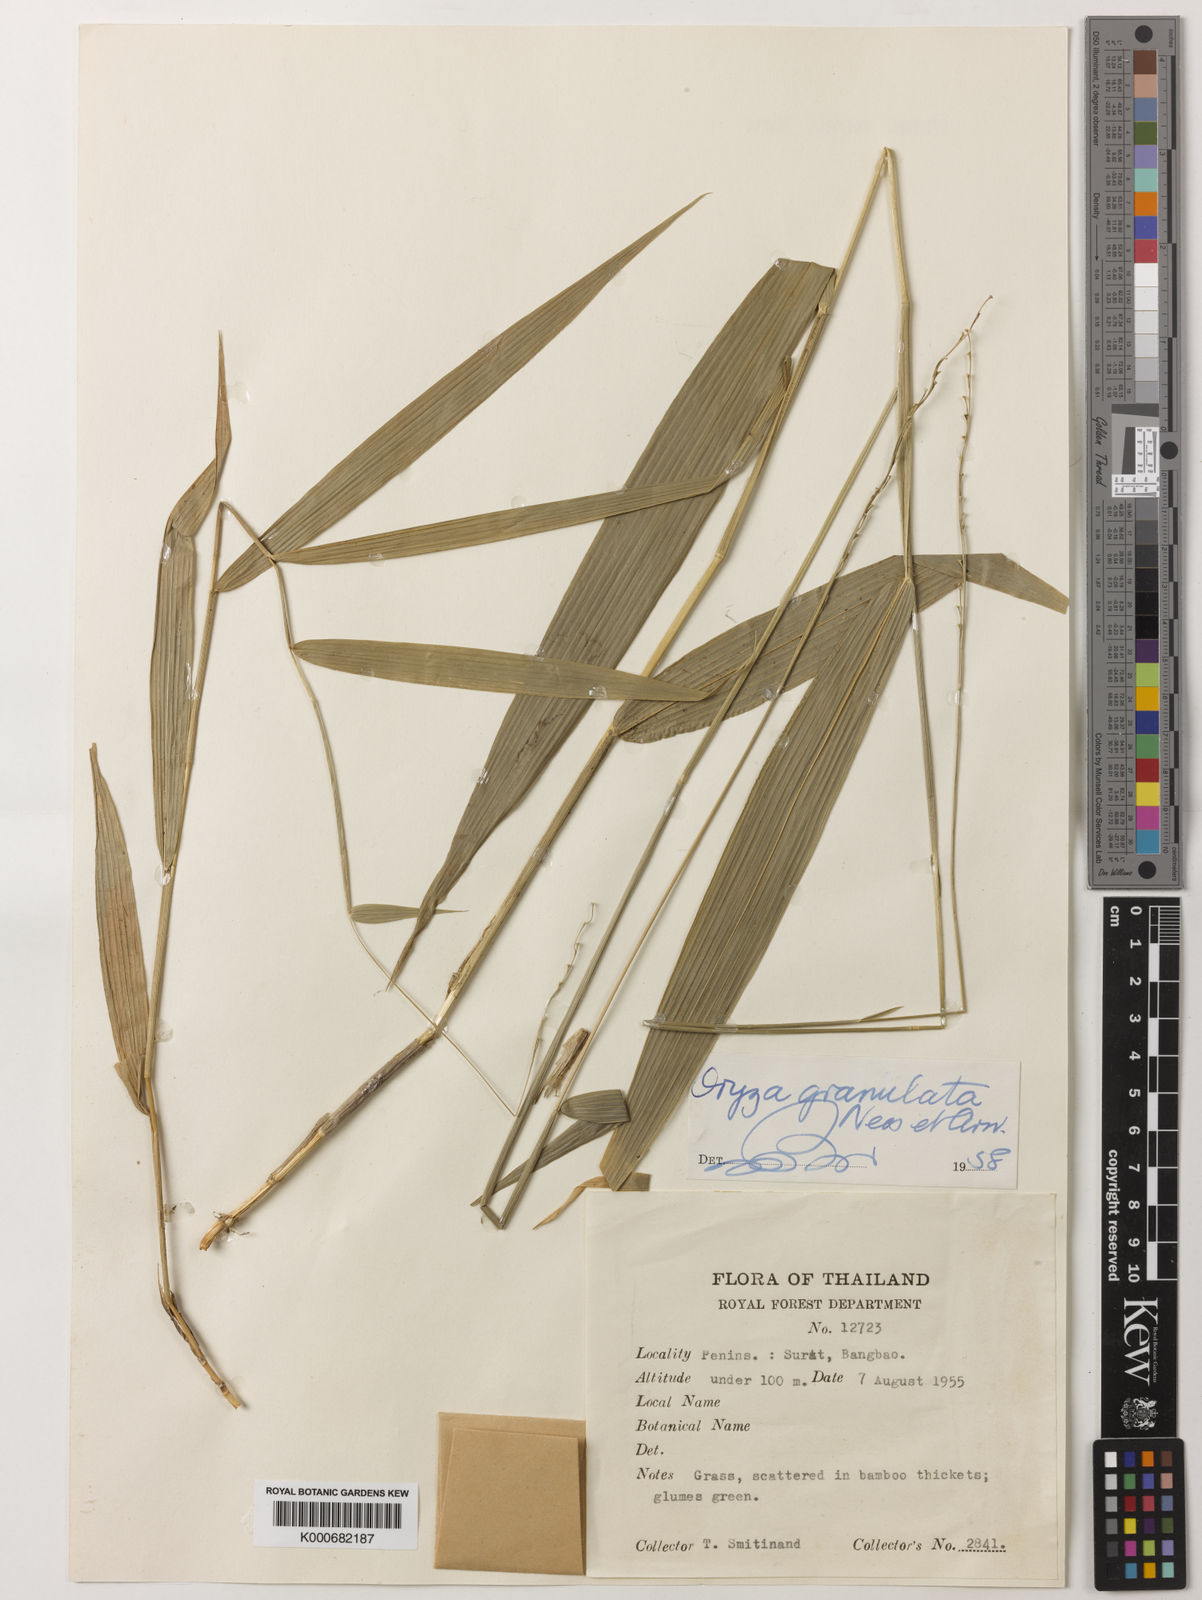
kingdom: Plantae
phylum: Tracheophyta
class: Liliopsida
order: Poales
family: Poaceae
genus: Oryza
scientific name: Oryza meyeriana
